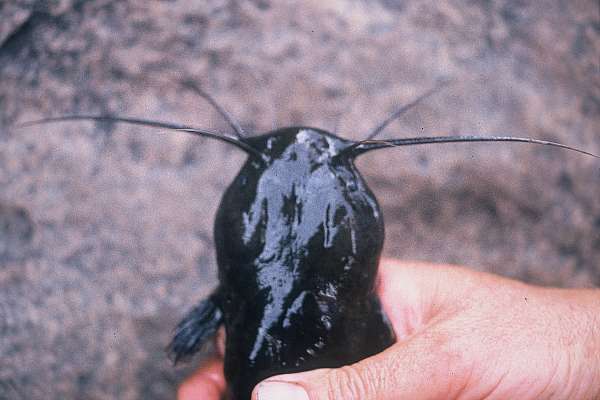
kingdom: Animalia
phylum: Chordata
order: Siluriformes
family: Clariidae
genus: Clariallabes
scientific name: Clariallabes platyprosopos
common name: Broadhead catfish
